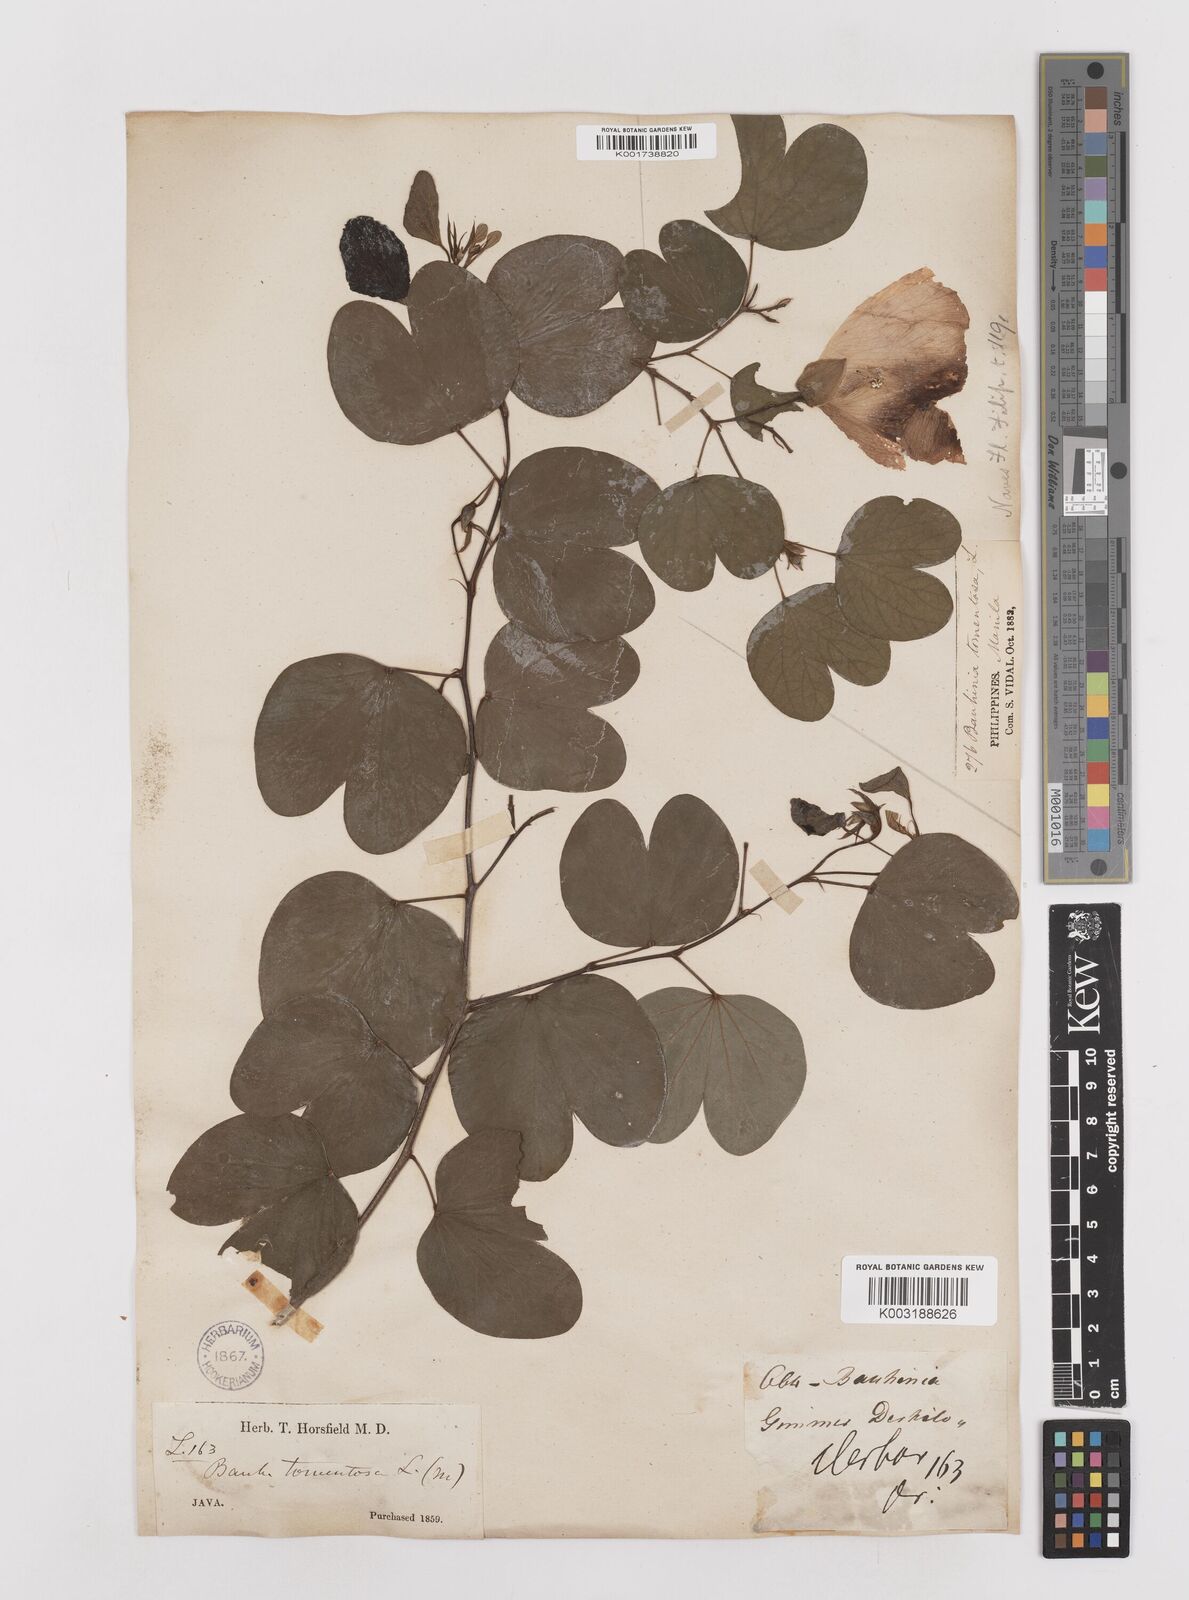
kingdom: Plantae
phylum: Tracheophyta
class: Magnoliopsida
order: Fabales
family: Fabaceae
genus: Bauhinia
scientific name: Bauhinia tomentosa
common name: Bell bauhinia
